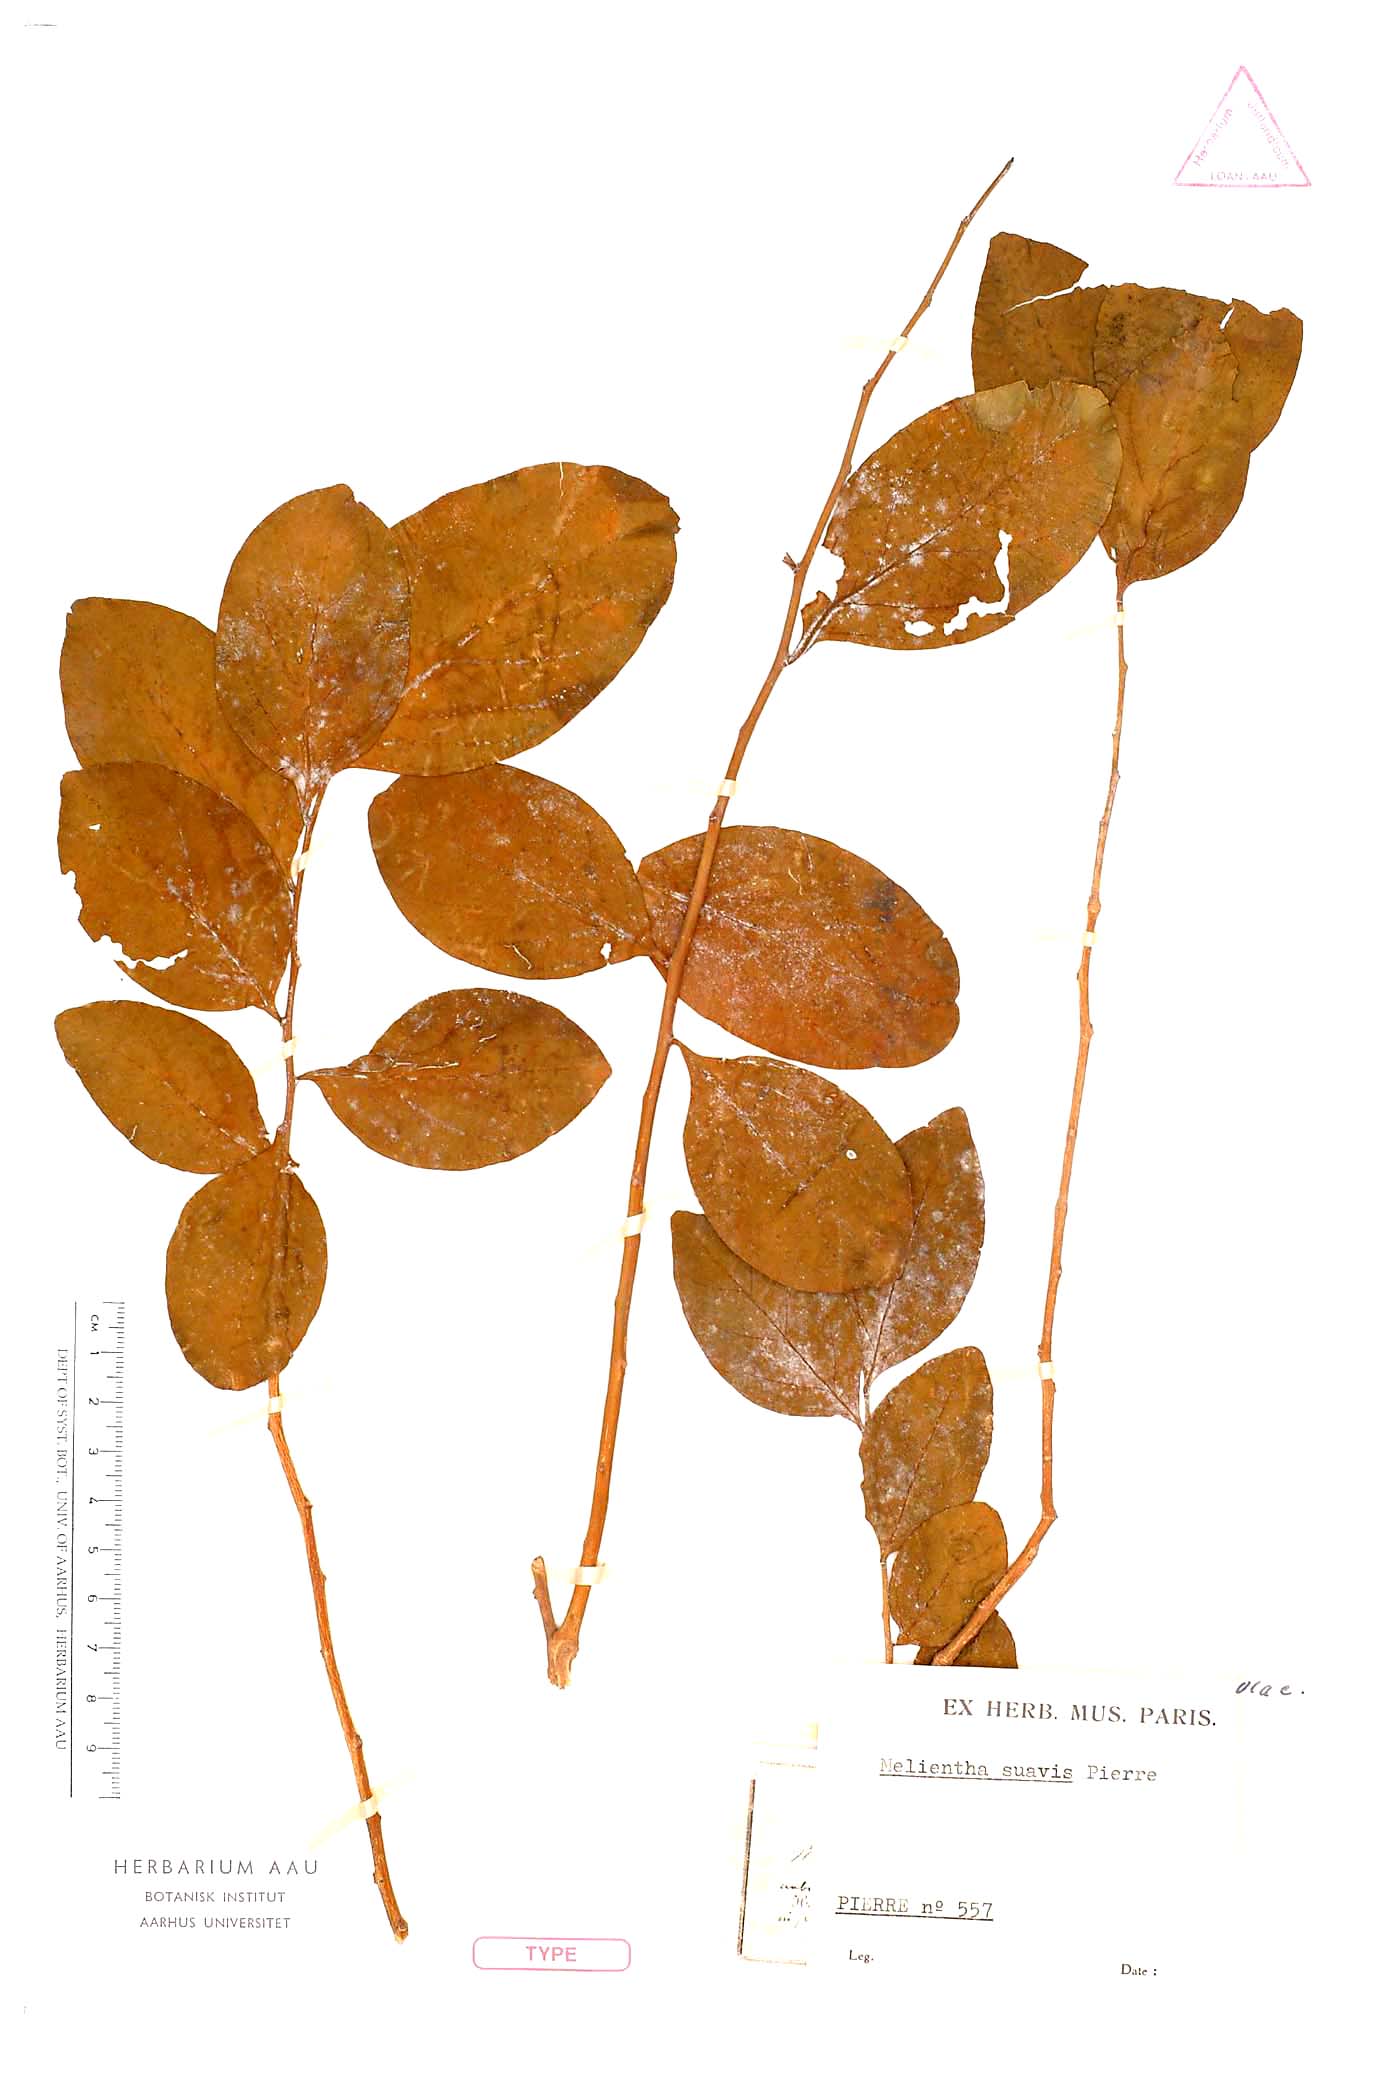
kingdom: Plantae
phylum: Tracheophyta
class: Magnoliopsida
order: Santalales
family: Opiliaceae
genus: Melientha
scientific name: Melientha suavis
